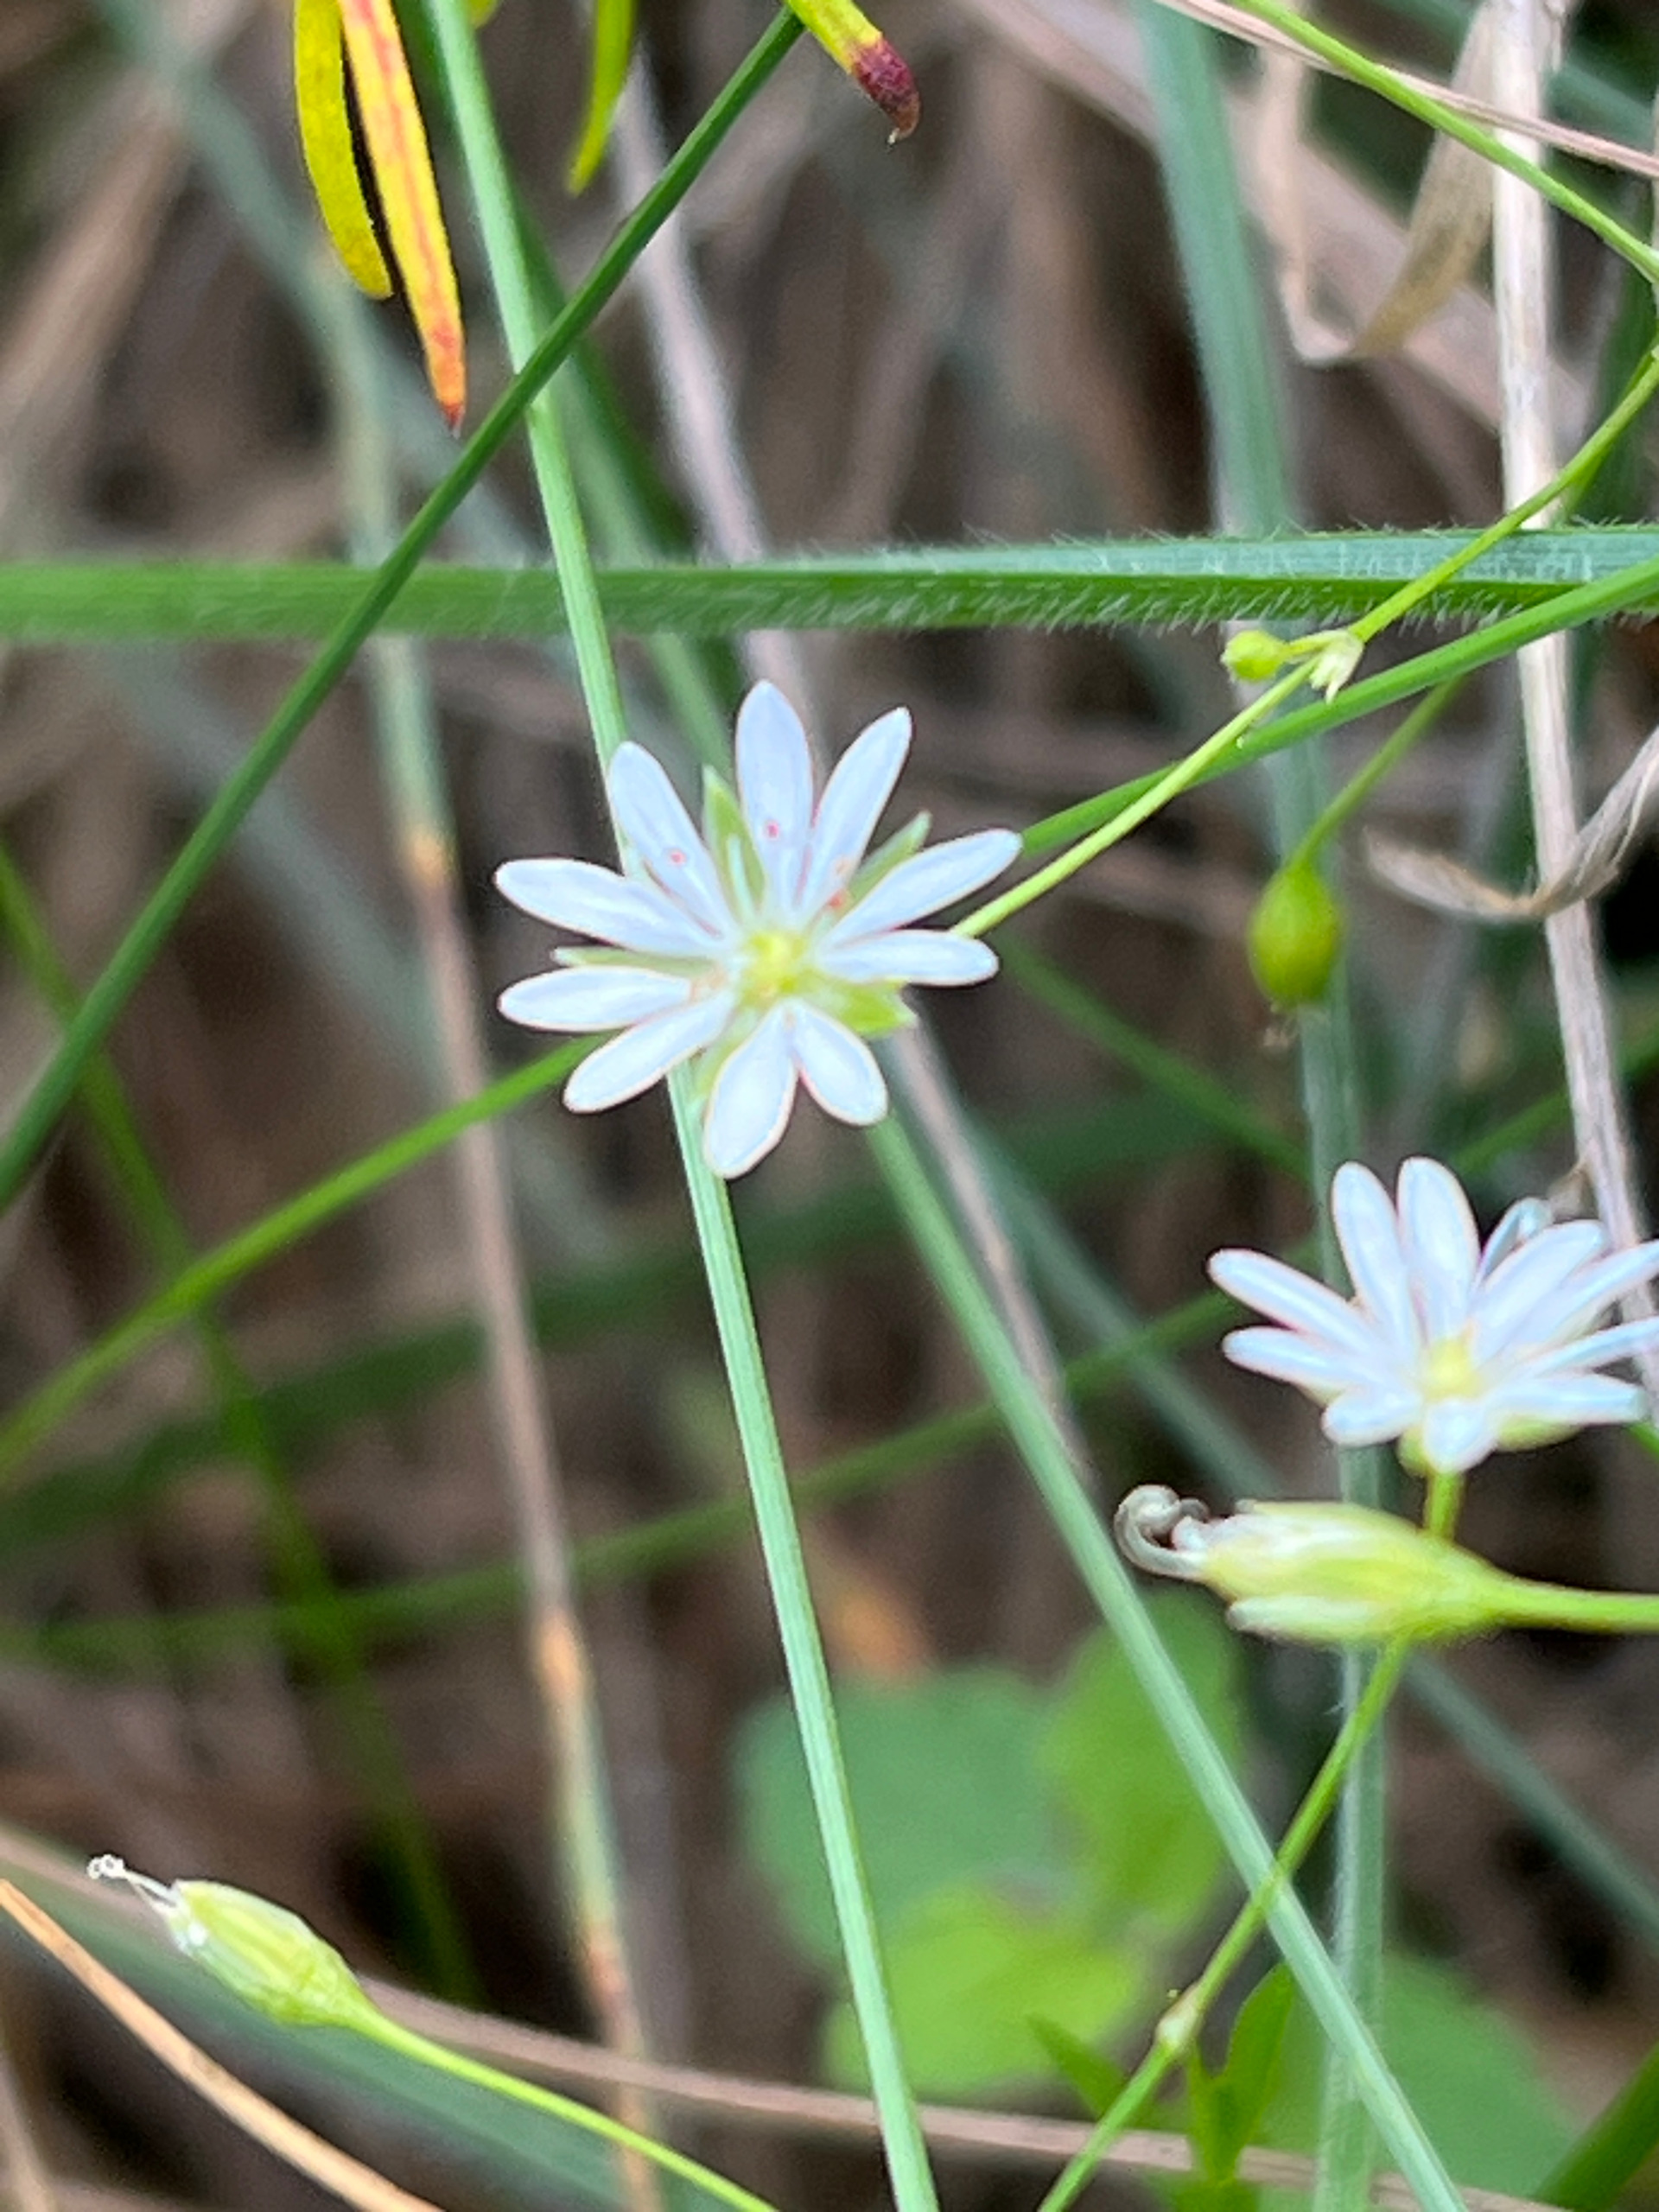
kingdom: Plantae
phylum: Tracheophyta
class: Magnoliopsida
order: Caryophyllales
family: Caryophyllaceae
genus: Stellaria
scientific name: Stellaria graminea
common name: Græsbladet fladstjerne
